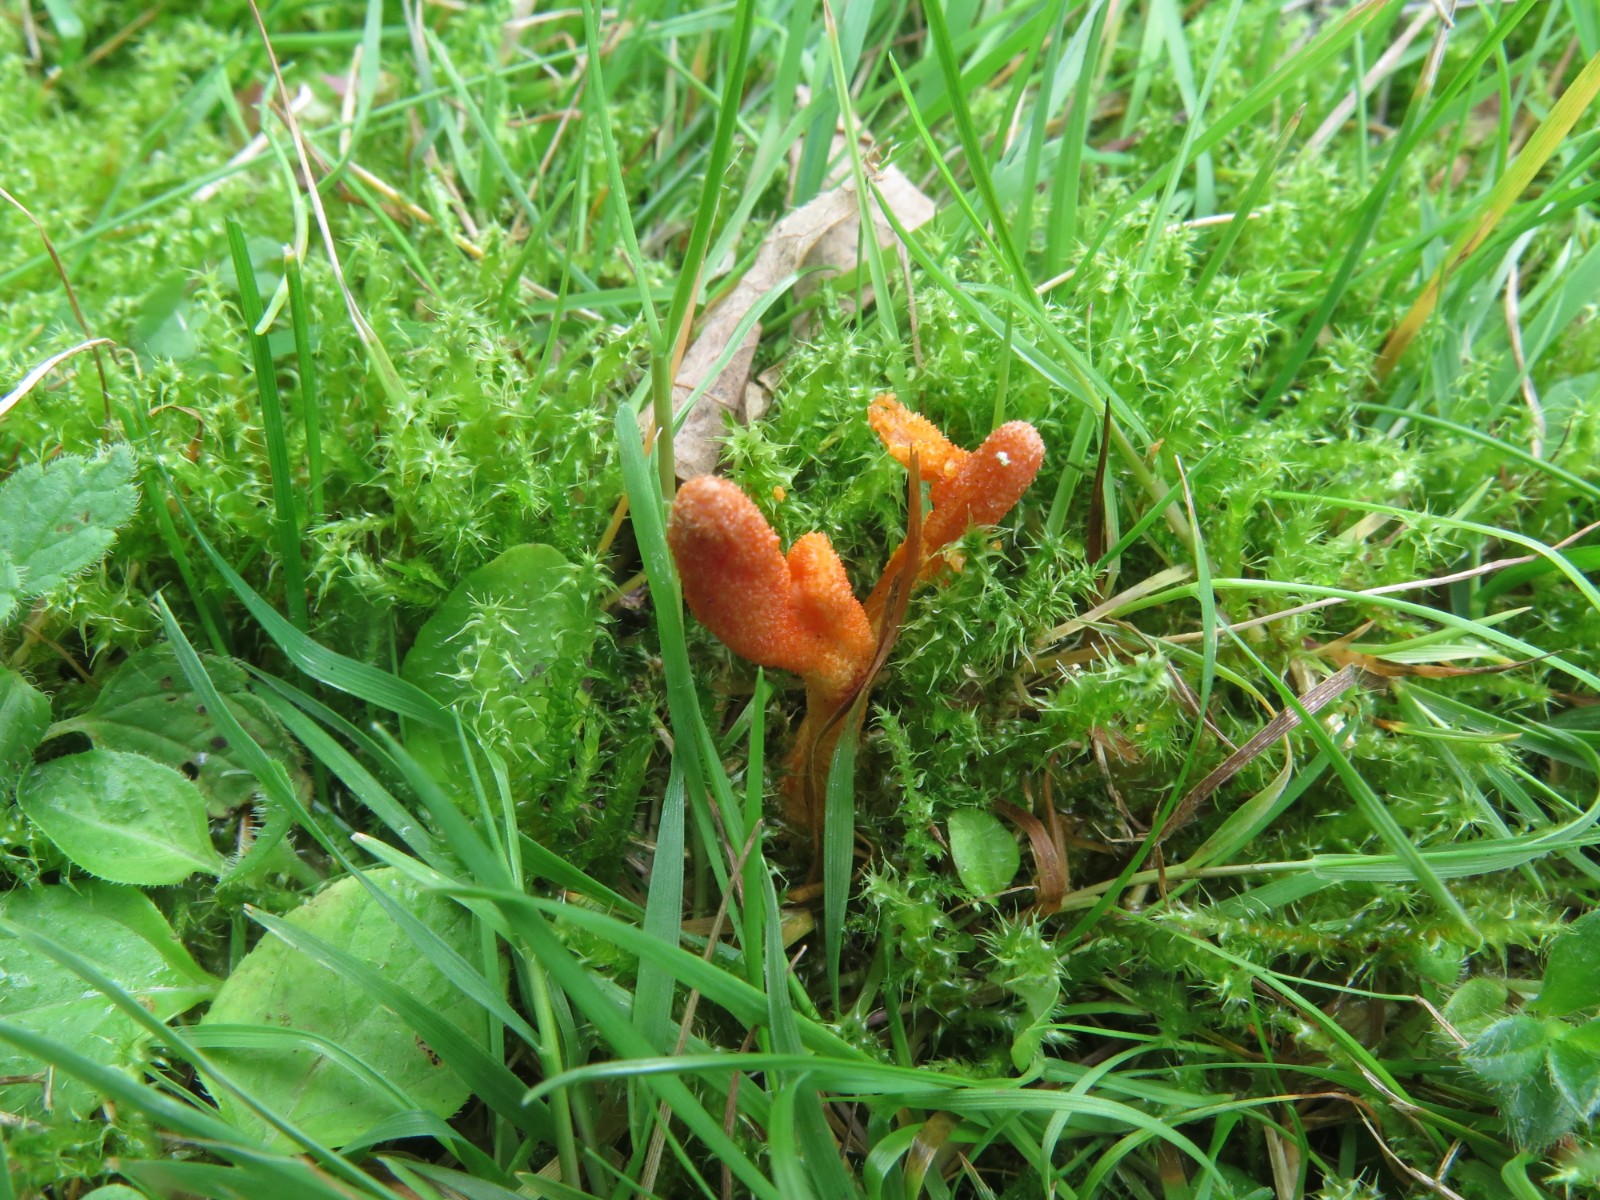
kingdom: Fungi
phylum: Ascomycota
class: Sordariomycetes
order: Hypocreales
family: Cordycipitaceae
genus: Cordyceps
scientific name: Cordyceps militaris
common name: puppe-snyltekølle
